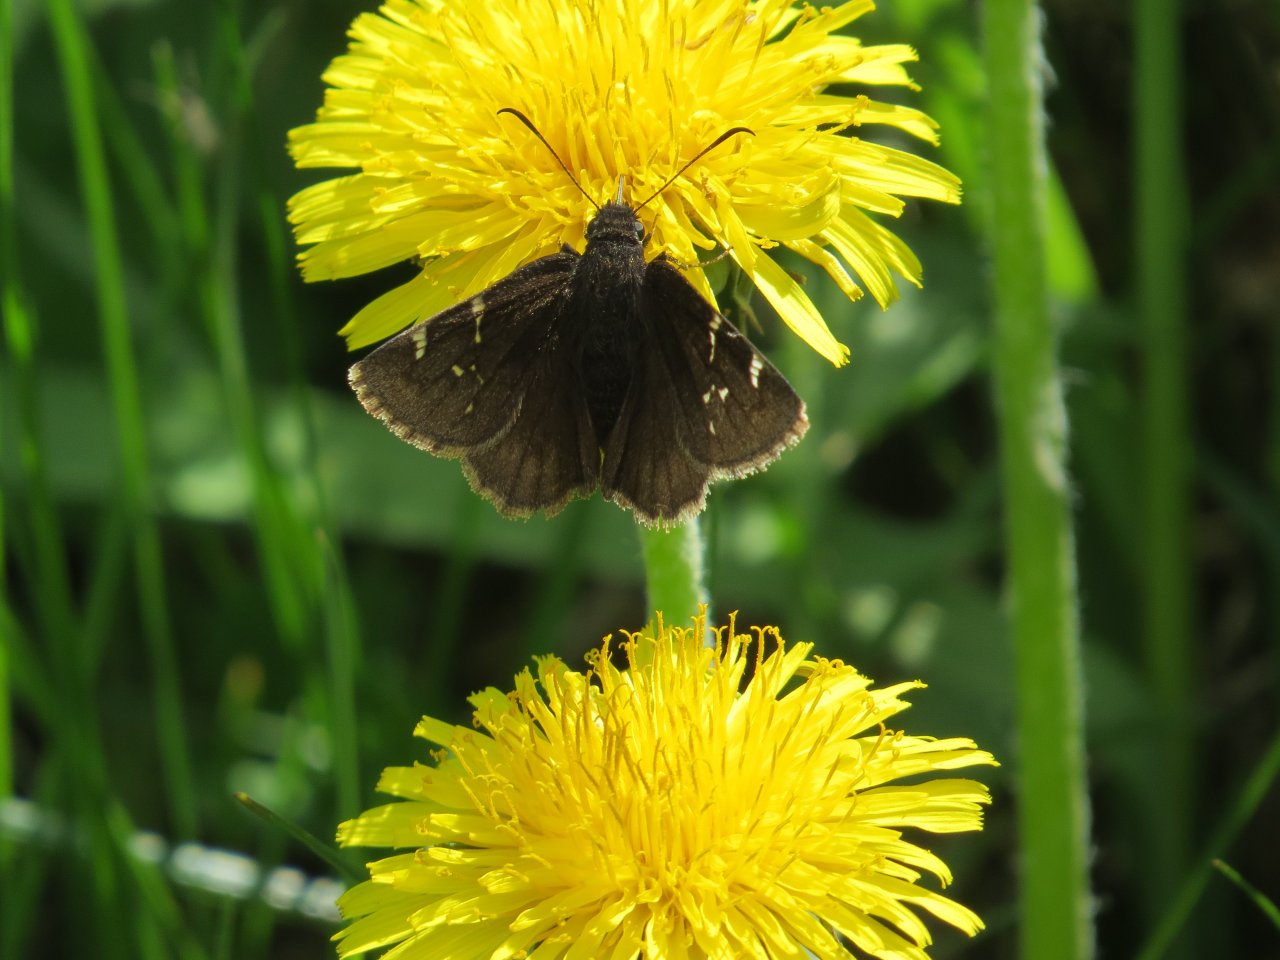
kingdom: Animalia
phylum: Arthropoda
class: Insecta
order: Lepidoptera
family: Hesperiidae
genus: Autochton
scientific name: Autochton
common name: Northern Cloudywing
